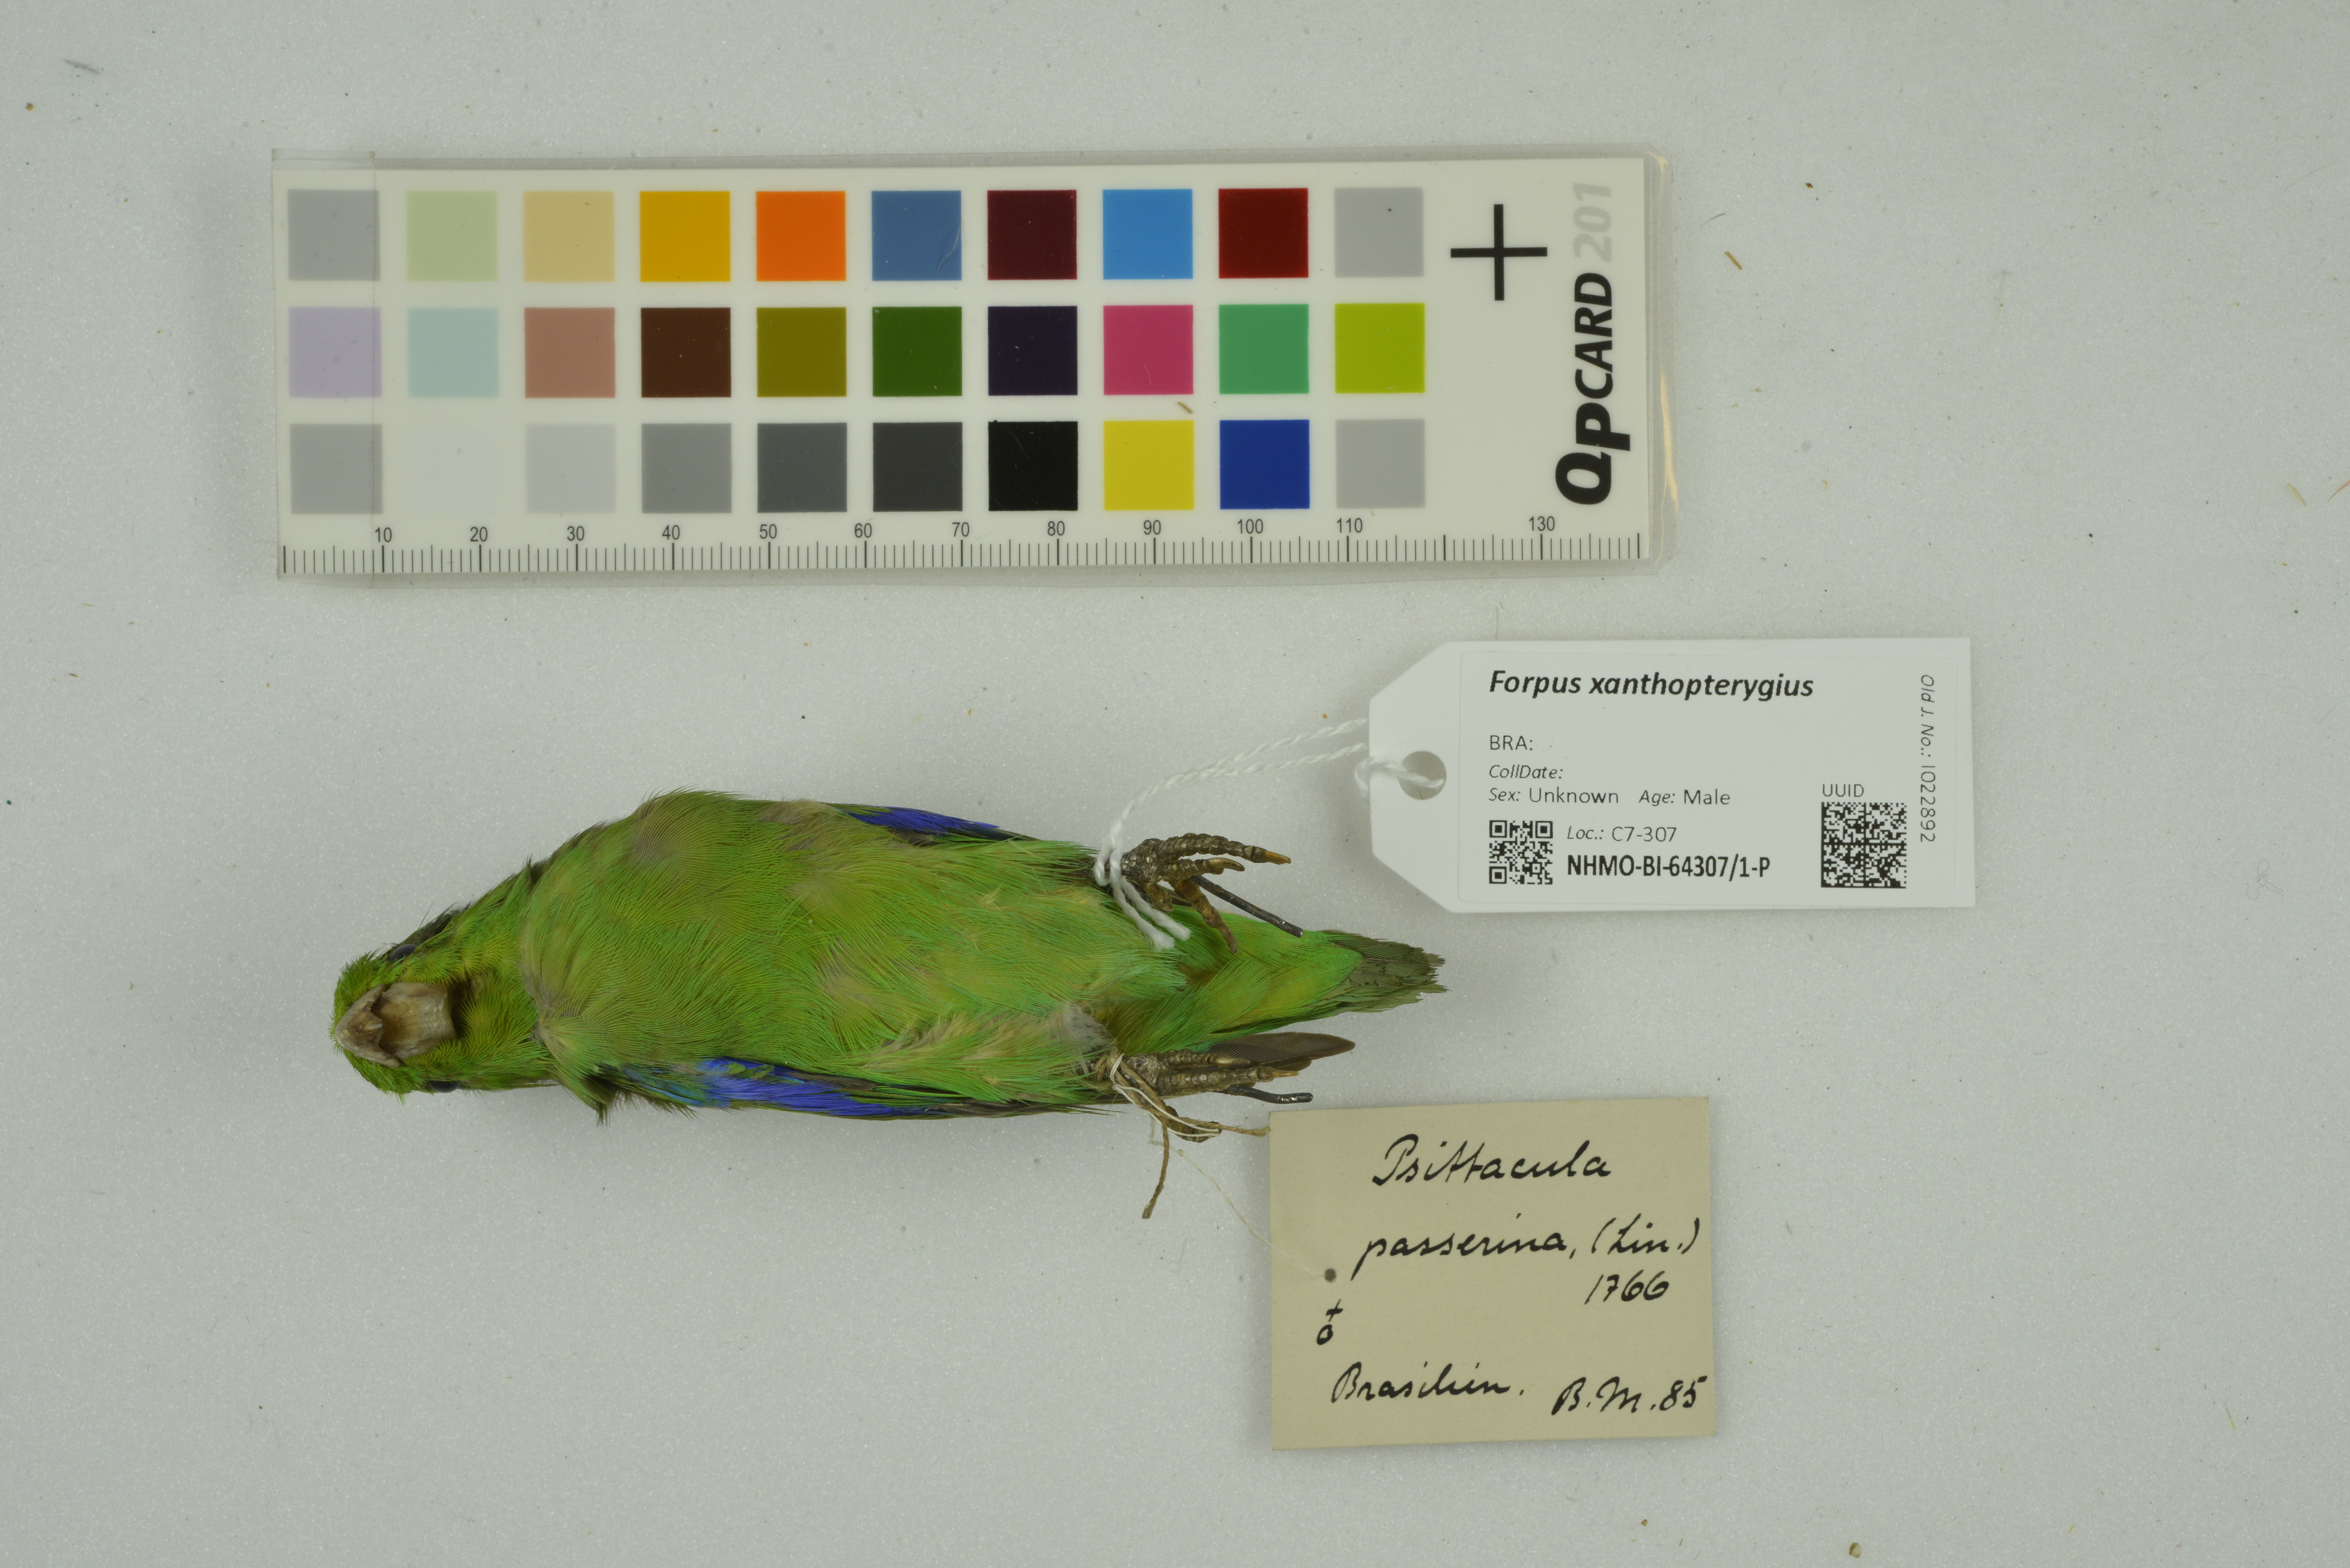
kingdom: Animalia
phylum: Chordata
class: Aves
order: Psittaciformes
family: Psittacidae
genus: Forpus
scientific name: Forpus xanthopterygius
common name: Blue-winged parrotlet
